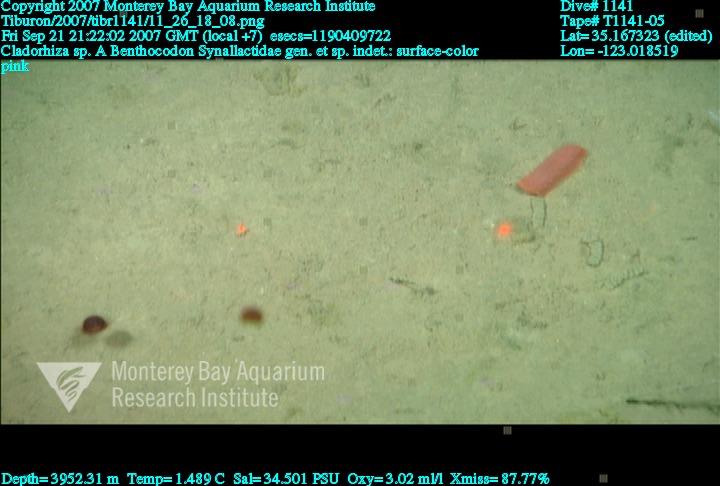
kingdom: Animalia
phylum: Porifera
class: Demospongiae
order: Poecilosclerida
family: Cladorhizidae
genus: Cladorhiza
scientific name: Cladorhiza
